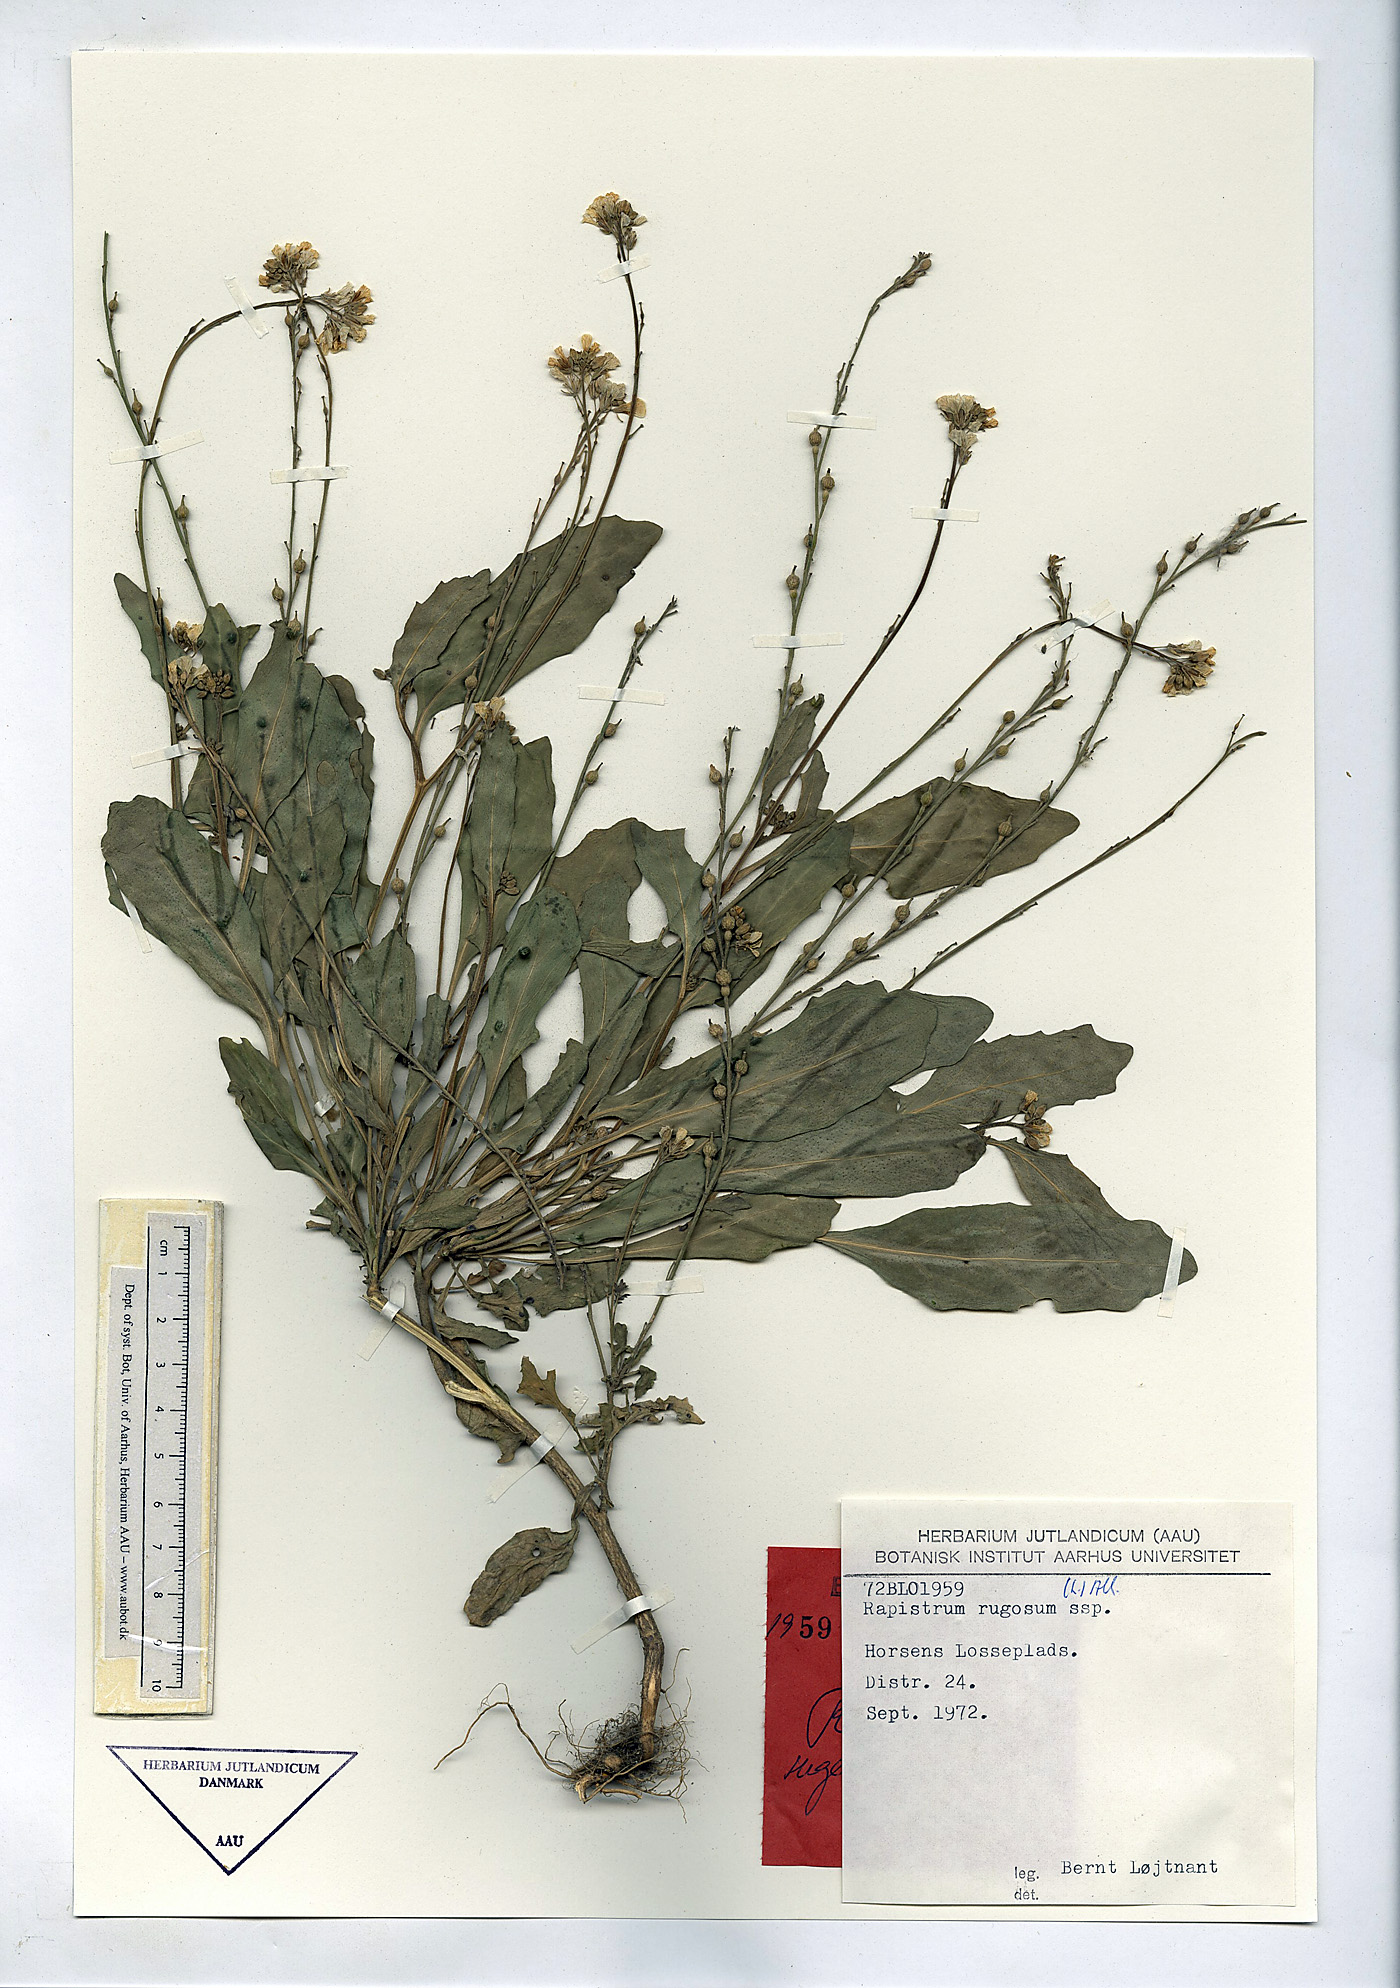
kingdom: Plantae
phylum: Tracheophyta
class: Magnoliopsida
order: Brassicales
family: Brassicaceae
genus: Rapistrum
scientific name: Rapistrum rugosum
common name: Annual bastardcabbage
